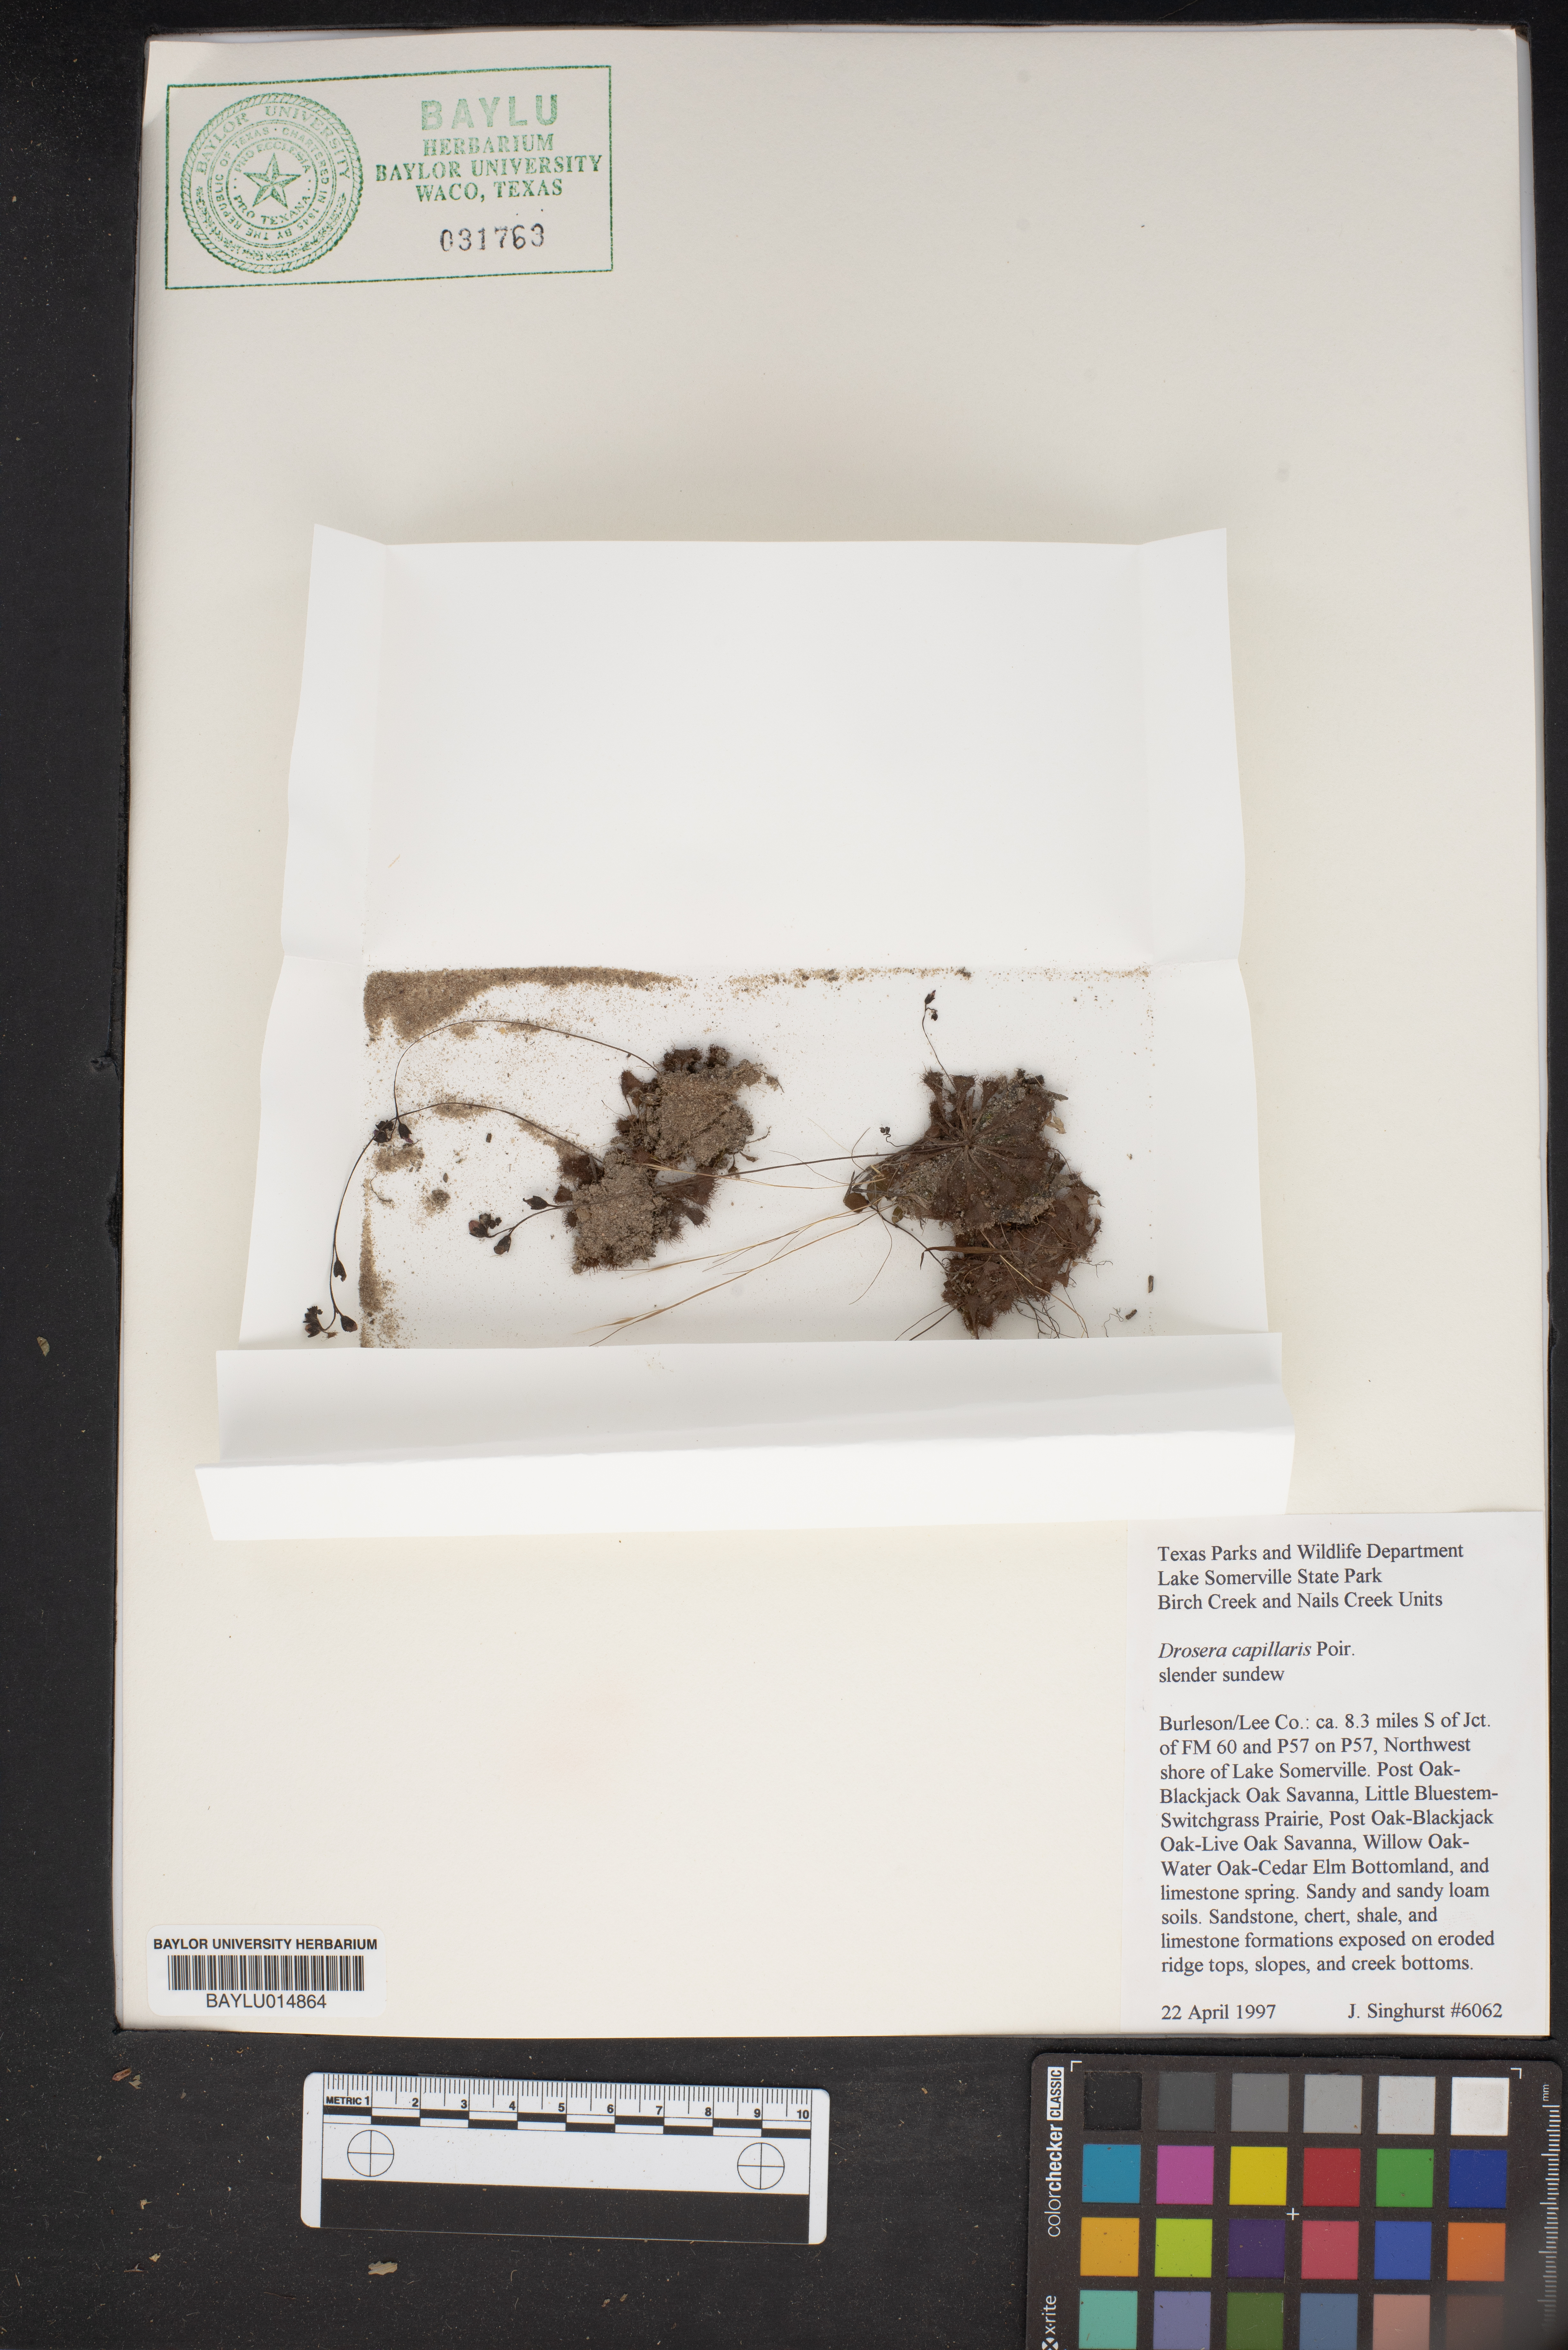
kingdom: Plantae
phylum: Tracheophyta
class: Magnoliopsida
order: Caryophyllales
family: Droseraceae
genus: Drosera
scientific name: Drosera capillaris
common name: Pink sundew
